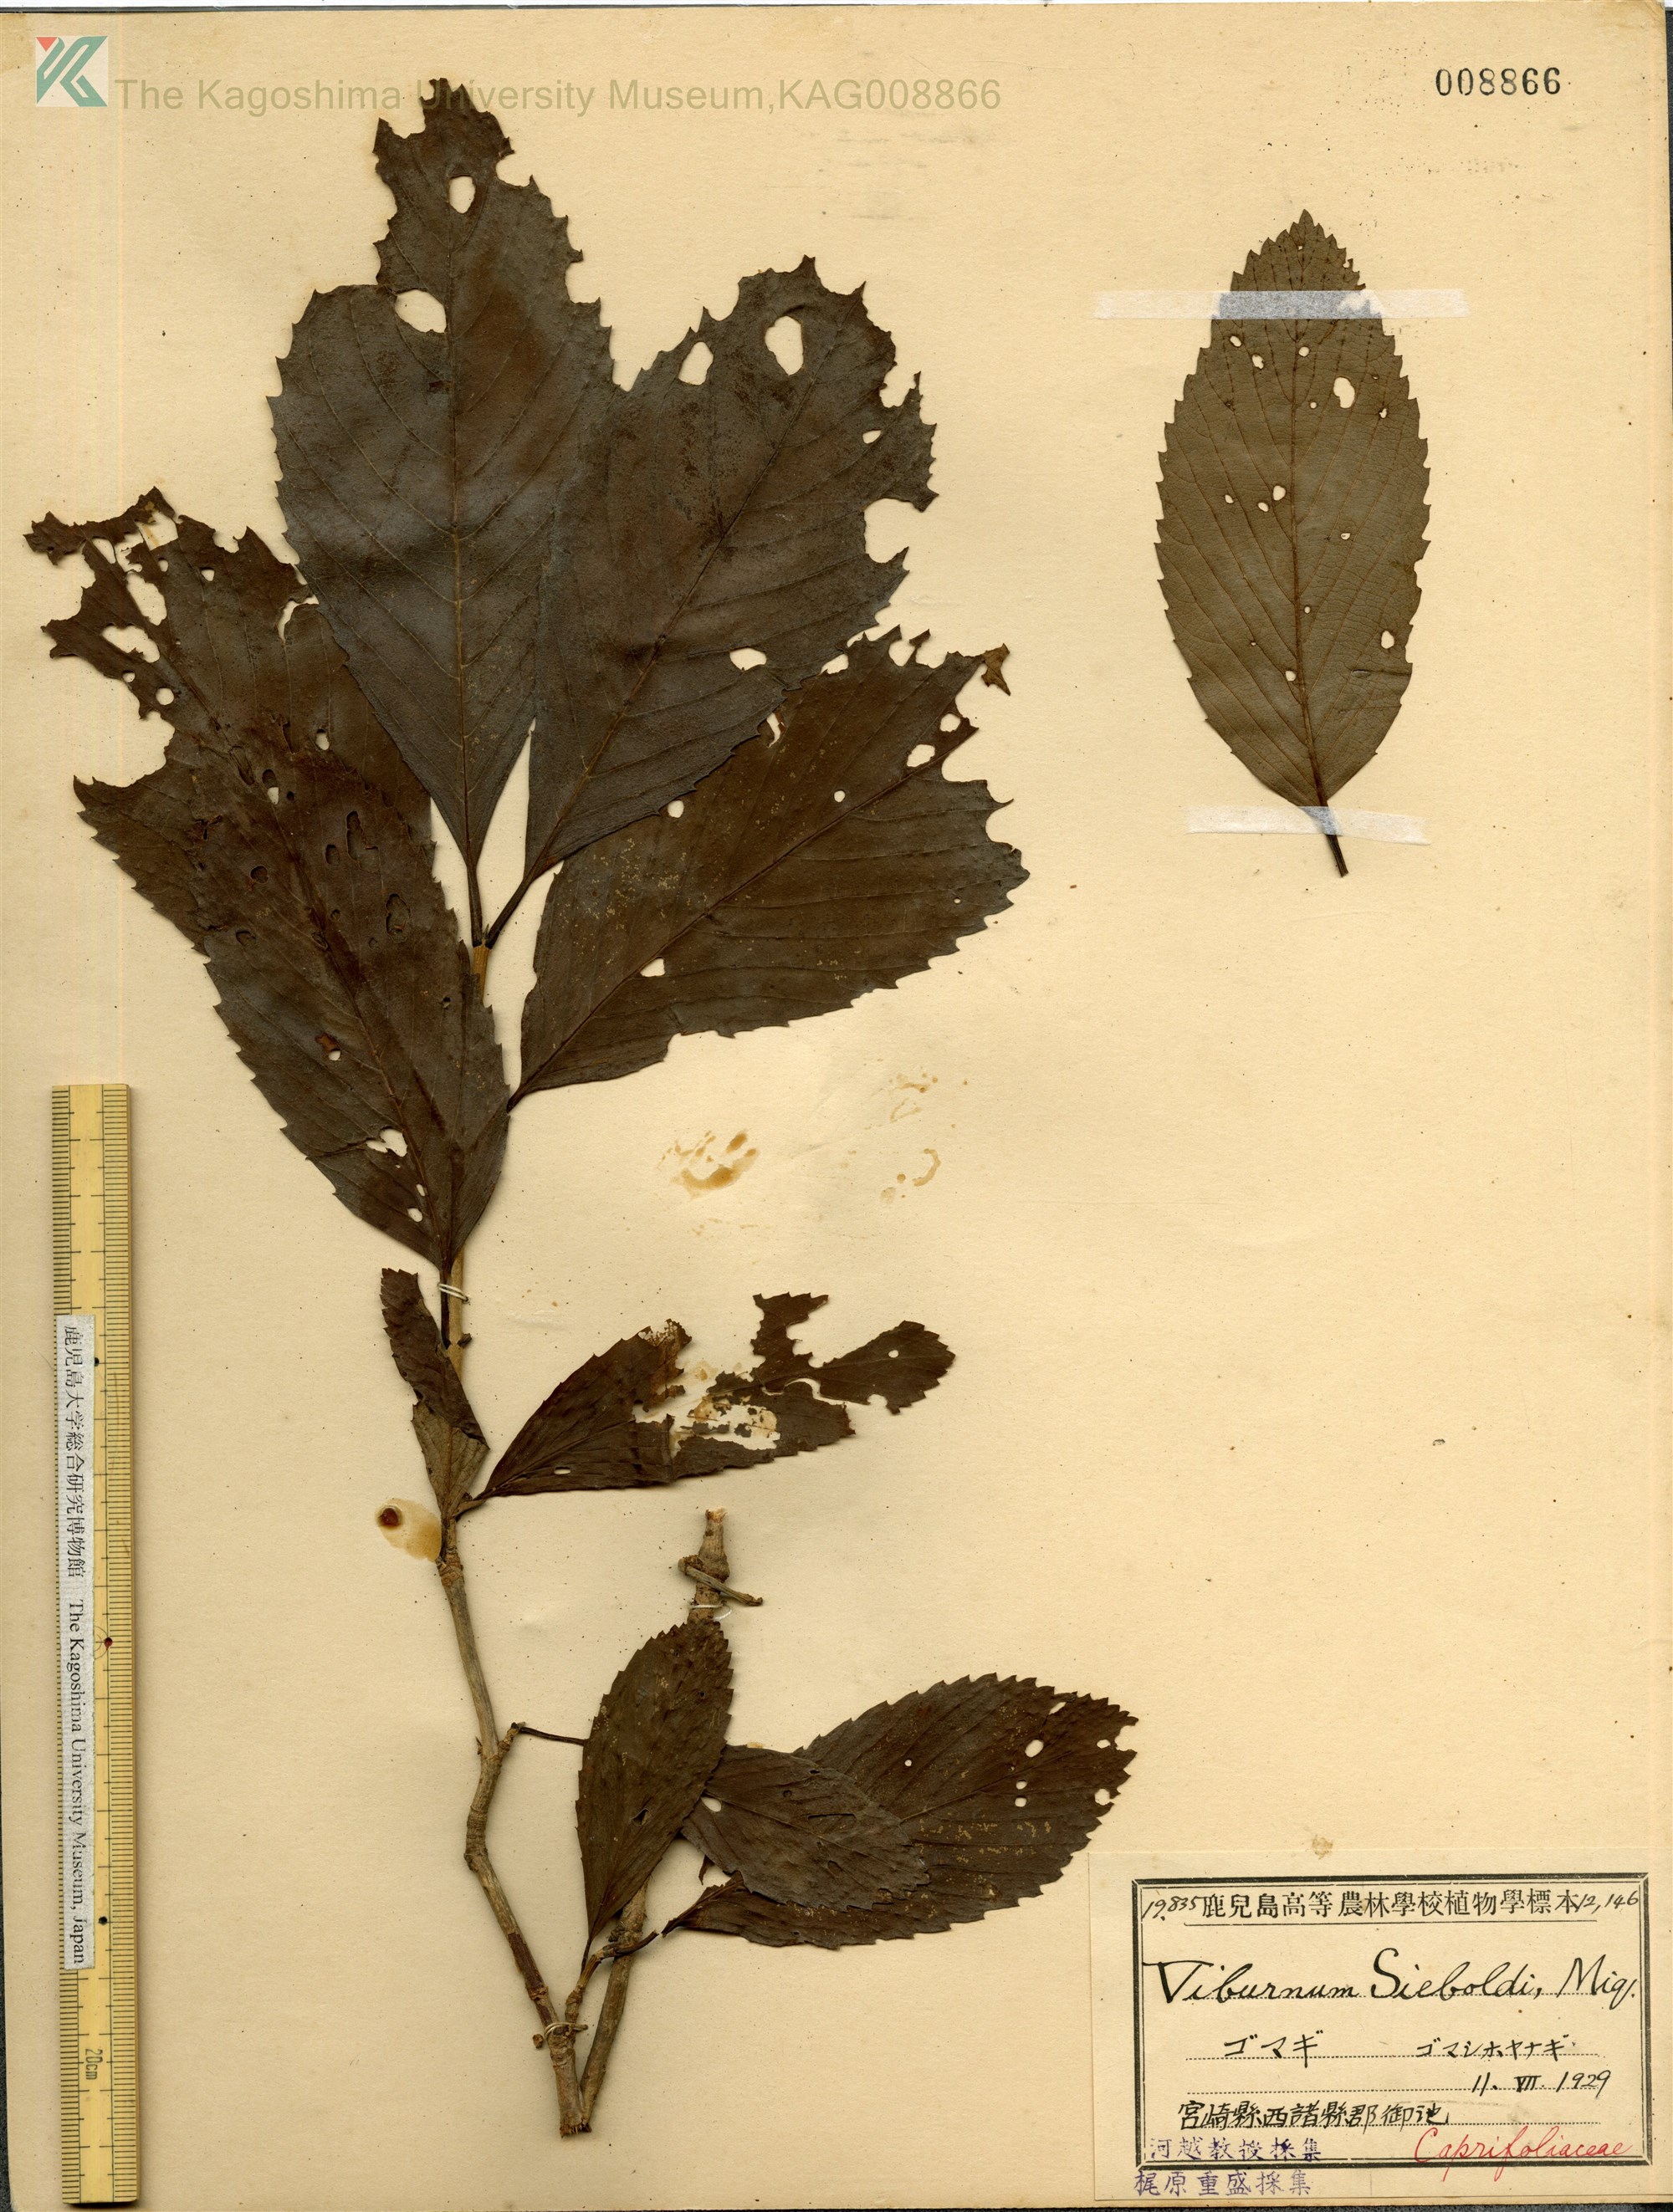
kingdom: Plantae
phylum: Tracheophyta
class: Magnoliopsida
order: Dipsacales
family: Viburnaceae
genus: Viburnum
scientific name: Viburnum sieboldii
